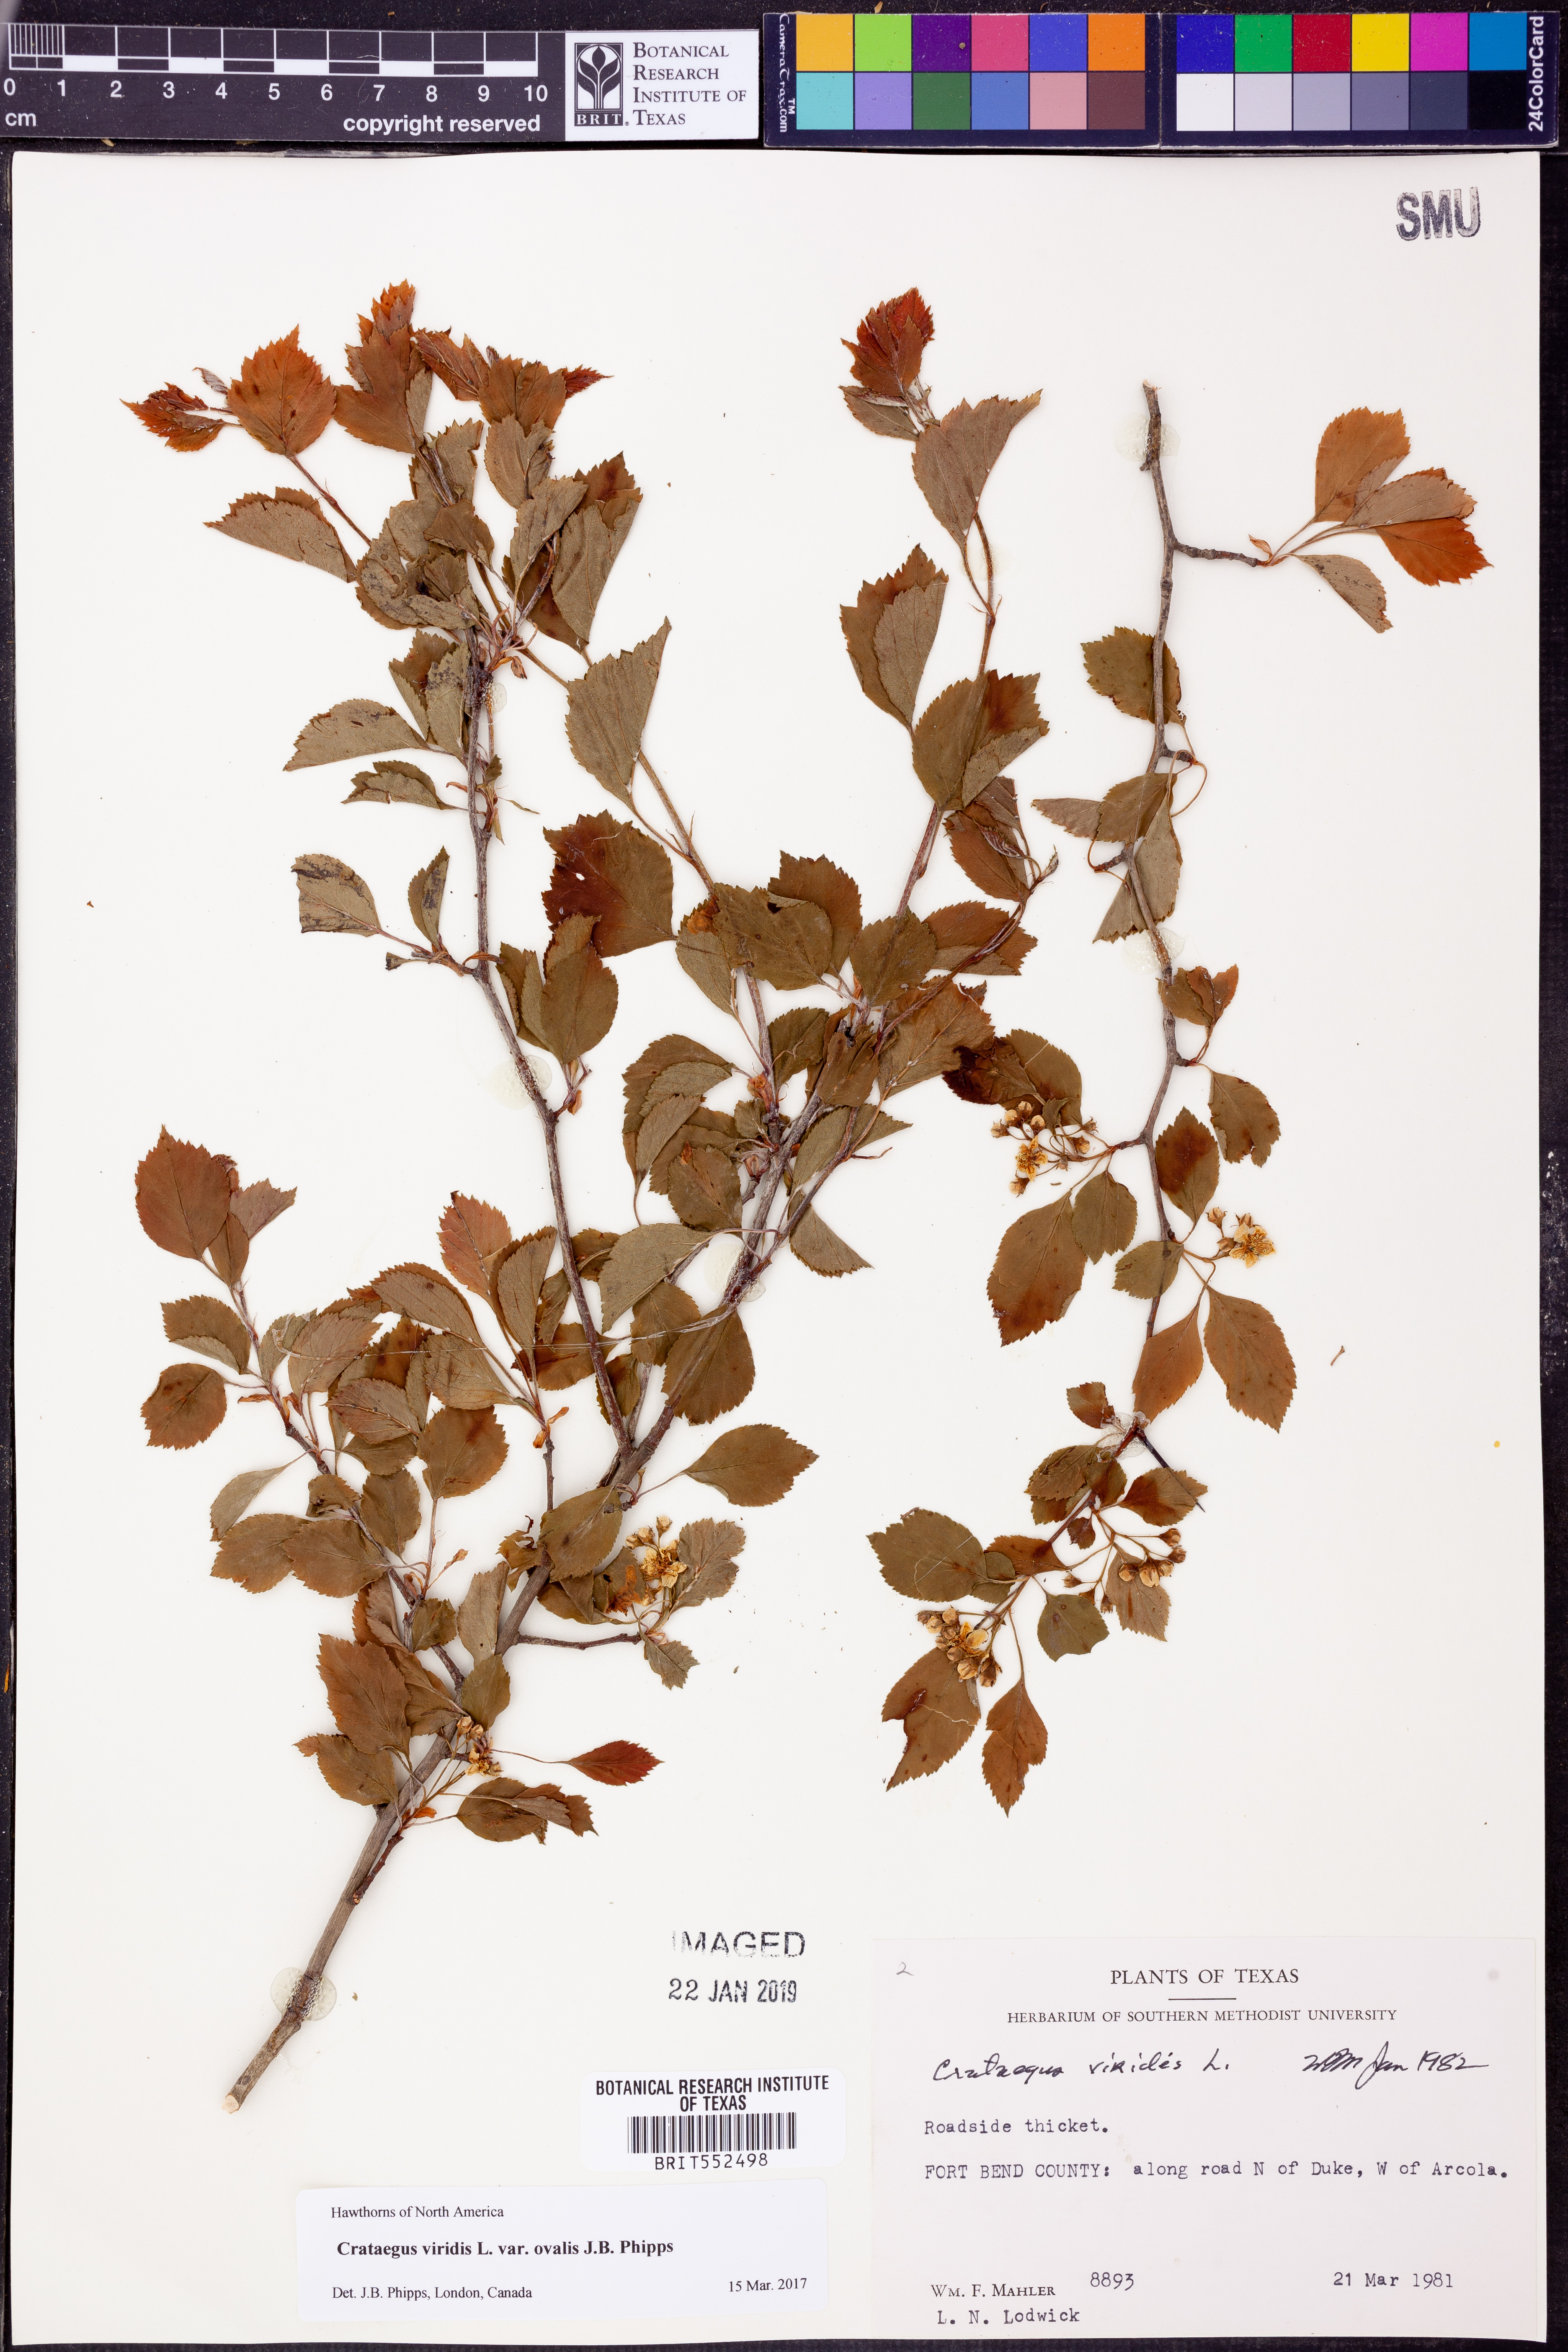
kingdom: Plantae
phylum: Tracheophyta
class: Magnoliopsida
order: Rosales
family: Rosaceae
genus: Crataegus
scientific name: Crataegus viridis
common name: Southernthorn
